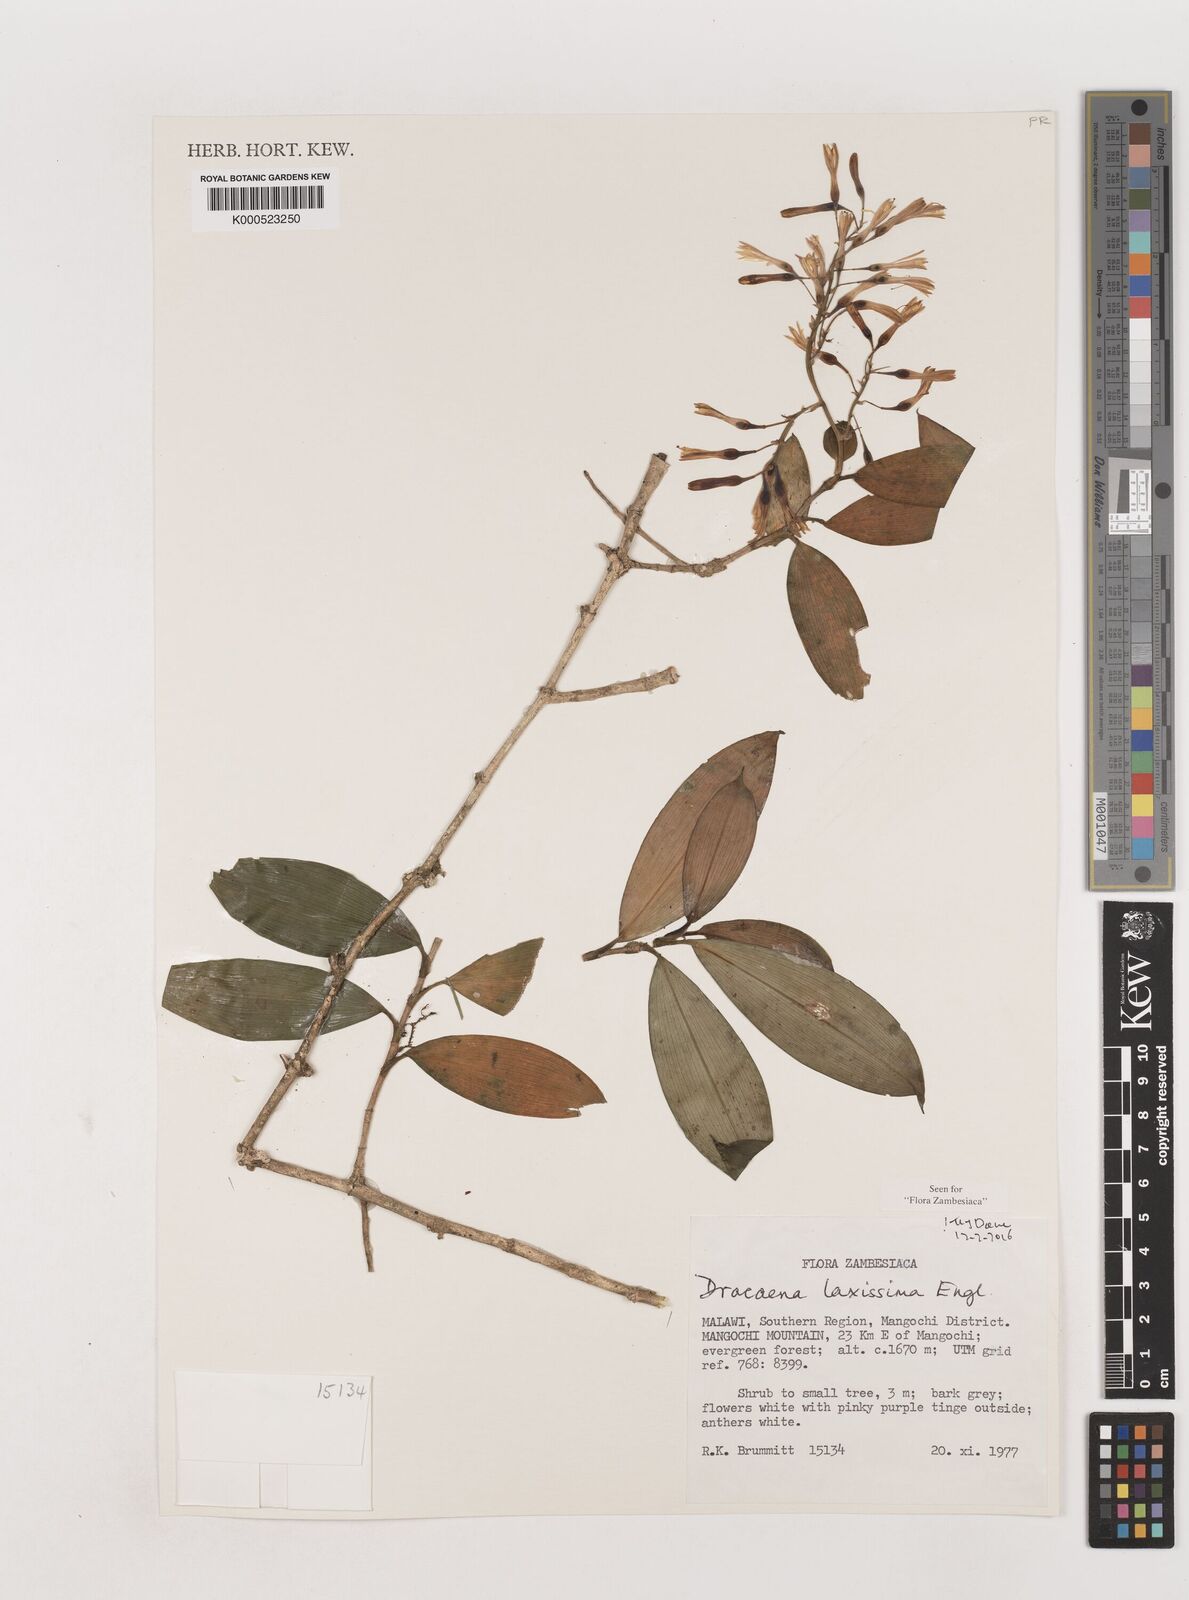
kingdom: Plantae
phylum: Tracheophyta
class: Liliopsida
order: Asparagales
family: Asparagaceae
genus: Dracaena
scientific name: Dracaena laxissima
